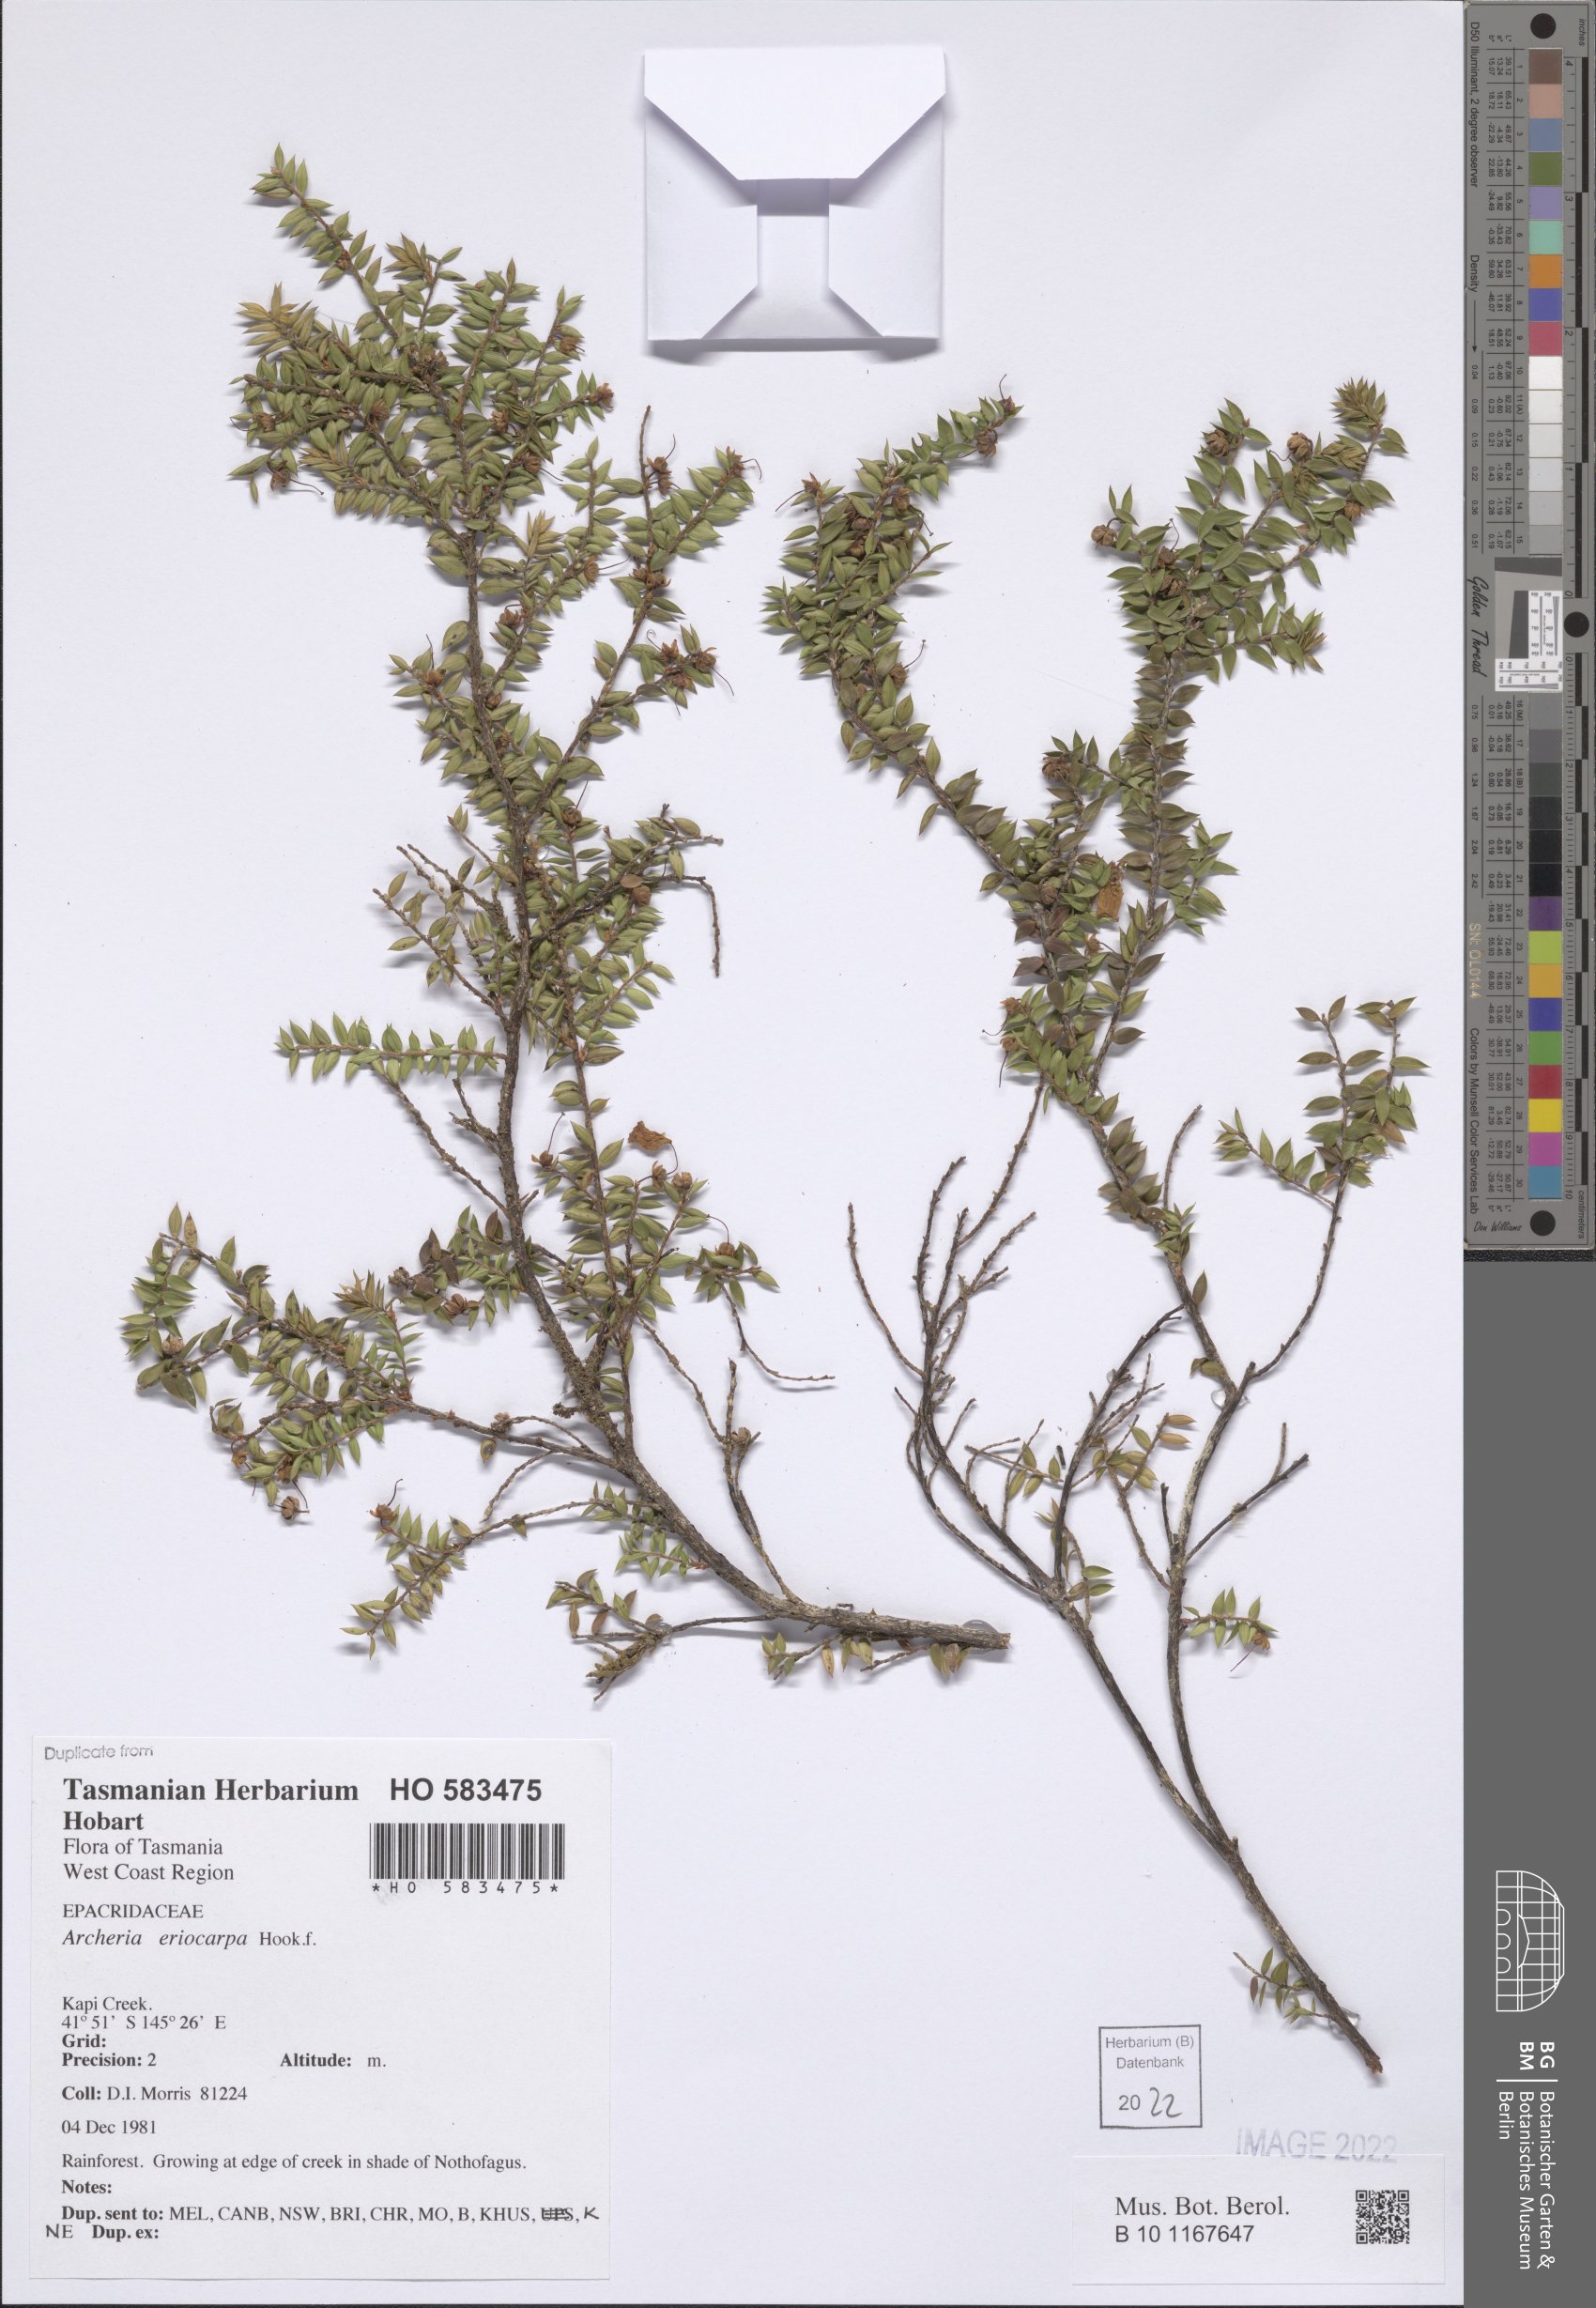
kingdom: Plantae
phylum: Tracheophyta
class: Magnoliopsida
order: Ericales
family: Ericaceae
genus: Archeria
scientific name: Archeria eriocarpa
